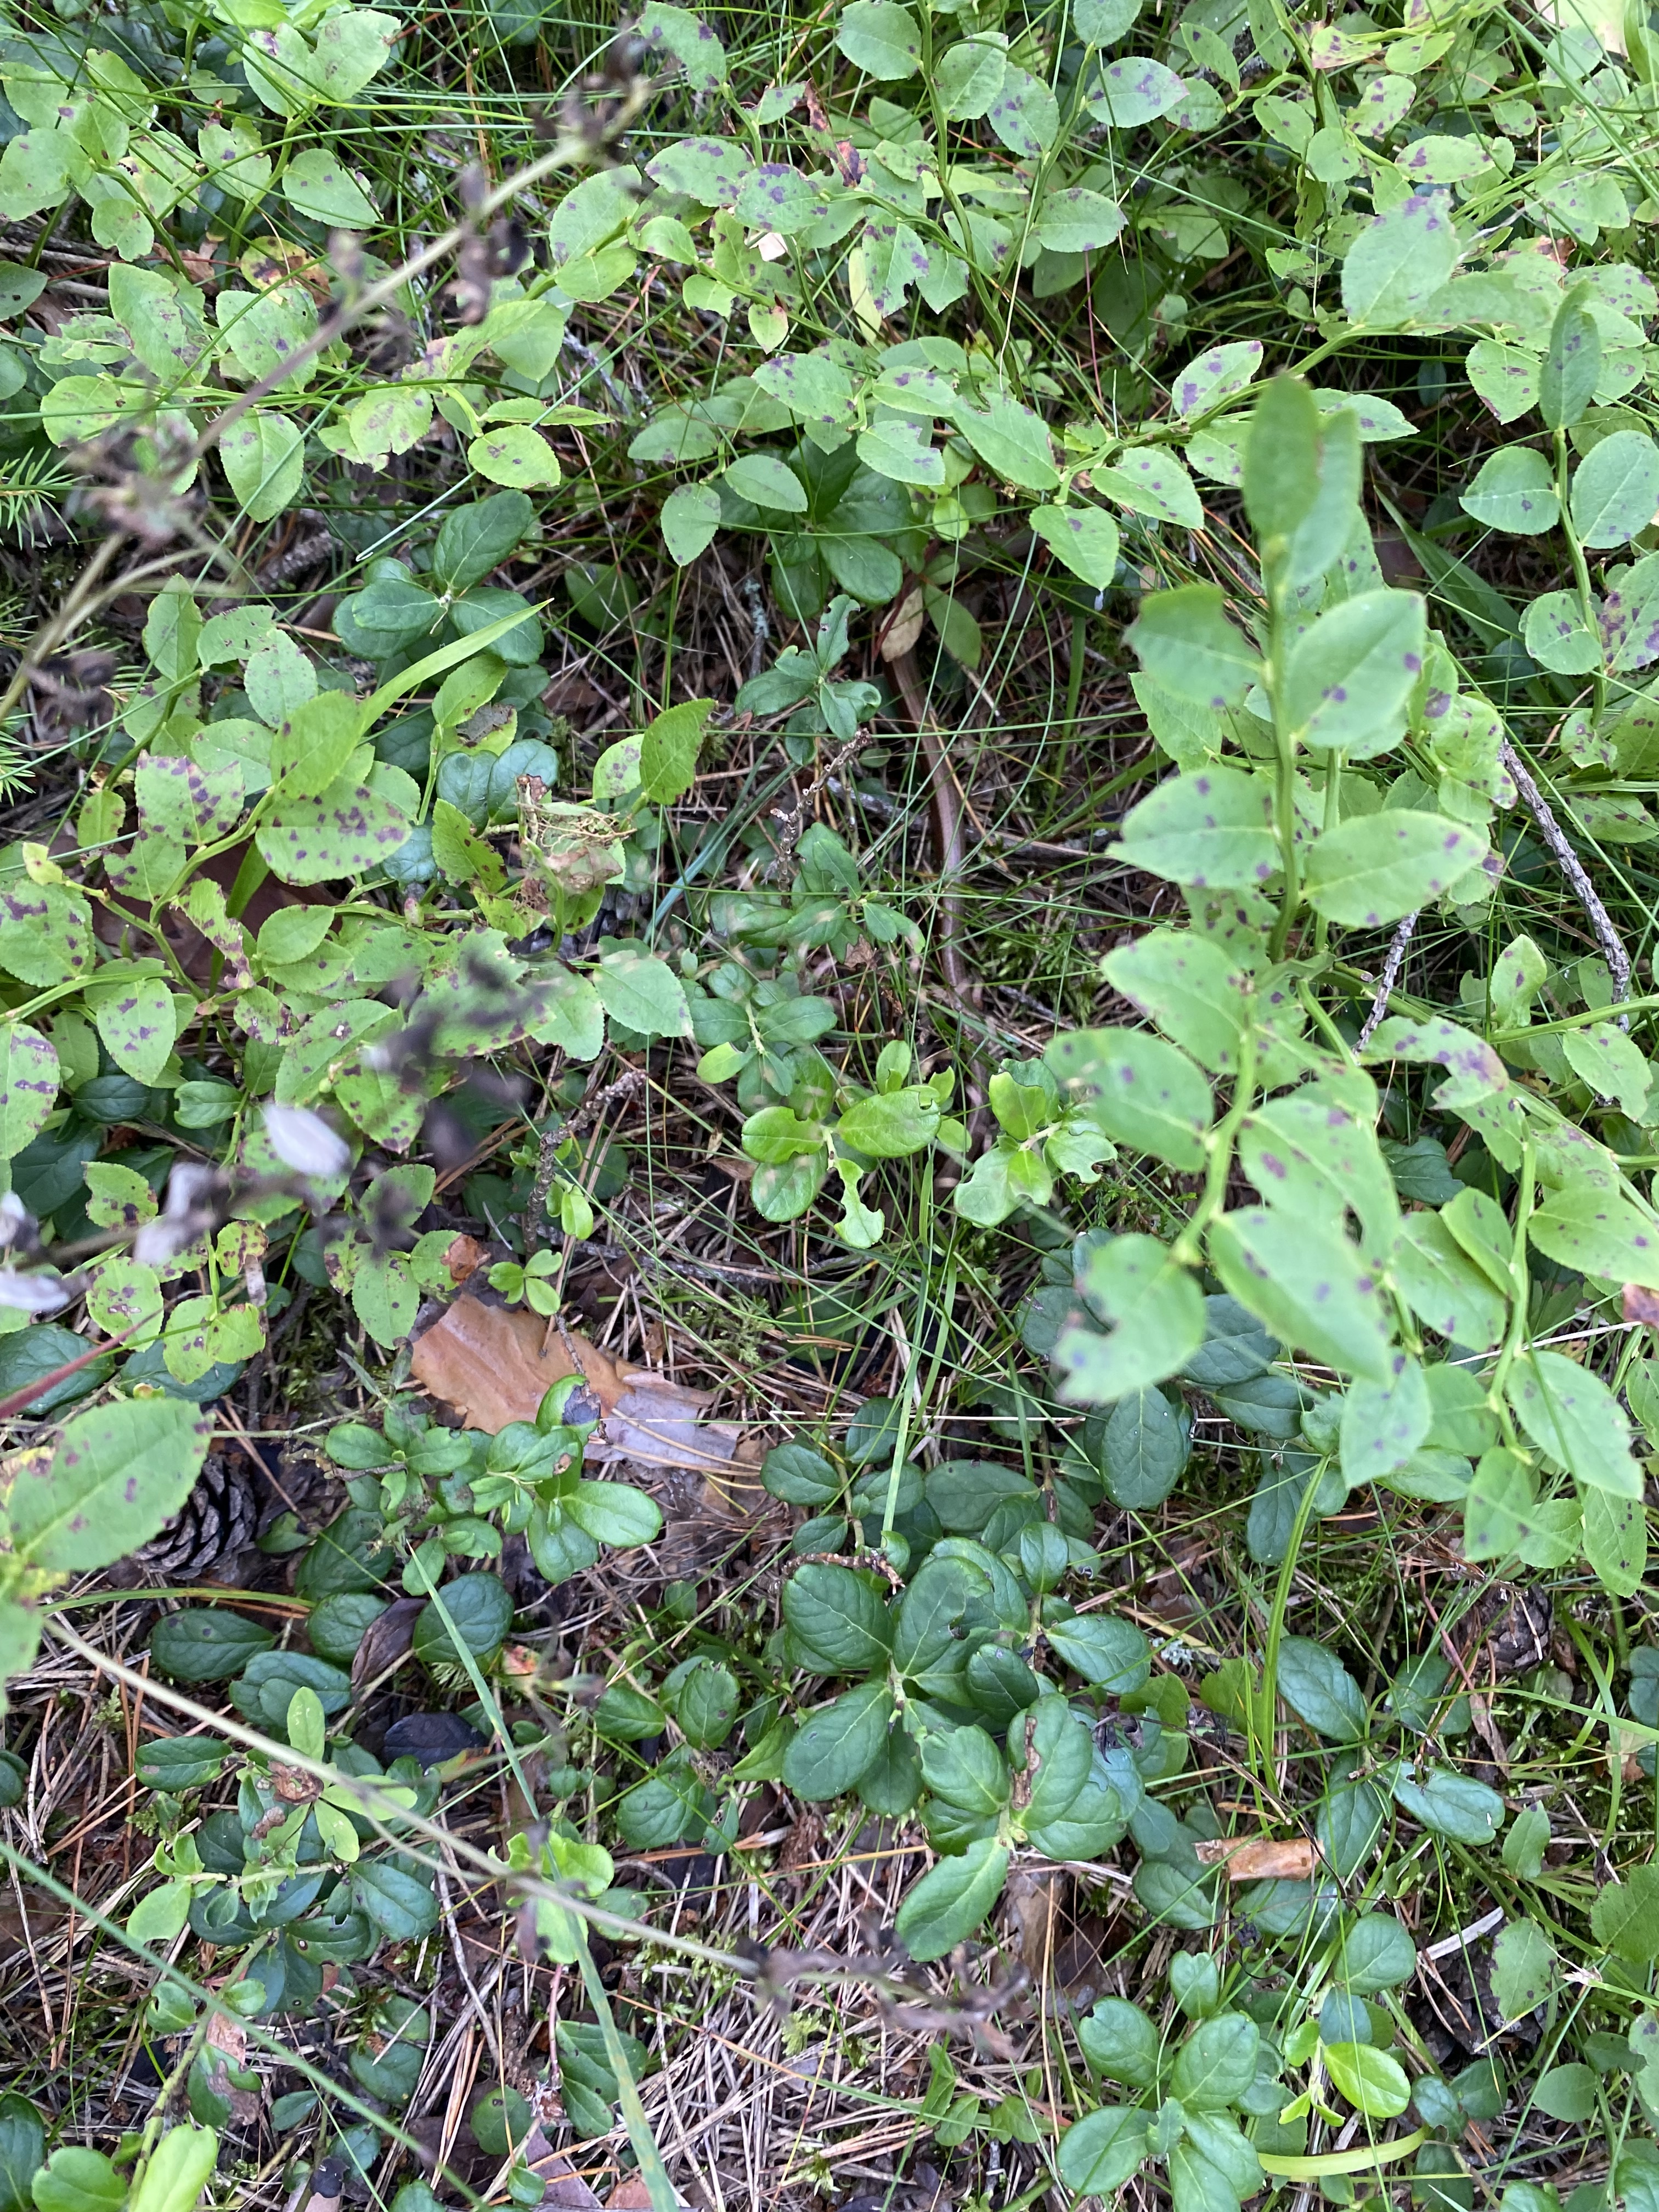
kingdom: Animalia
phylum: Chordata
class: Squamata
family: Anguidae
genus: Anguis
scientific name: Anguis colchica
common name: Slow worm
